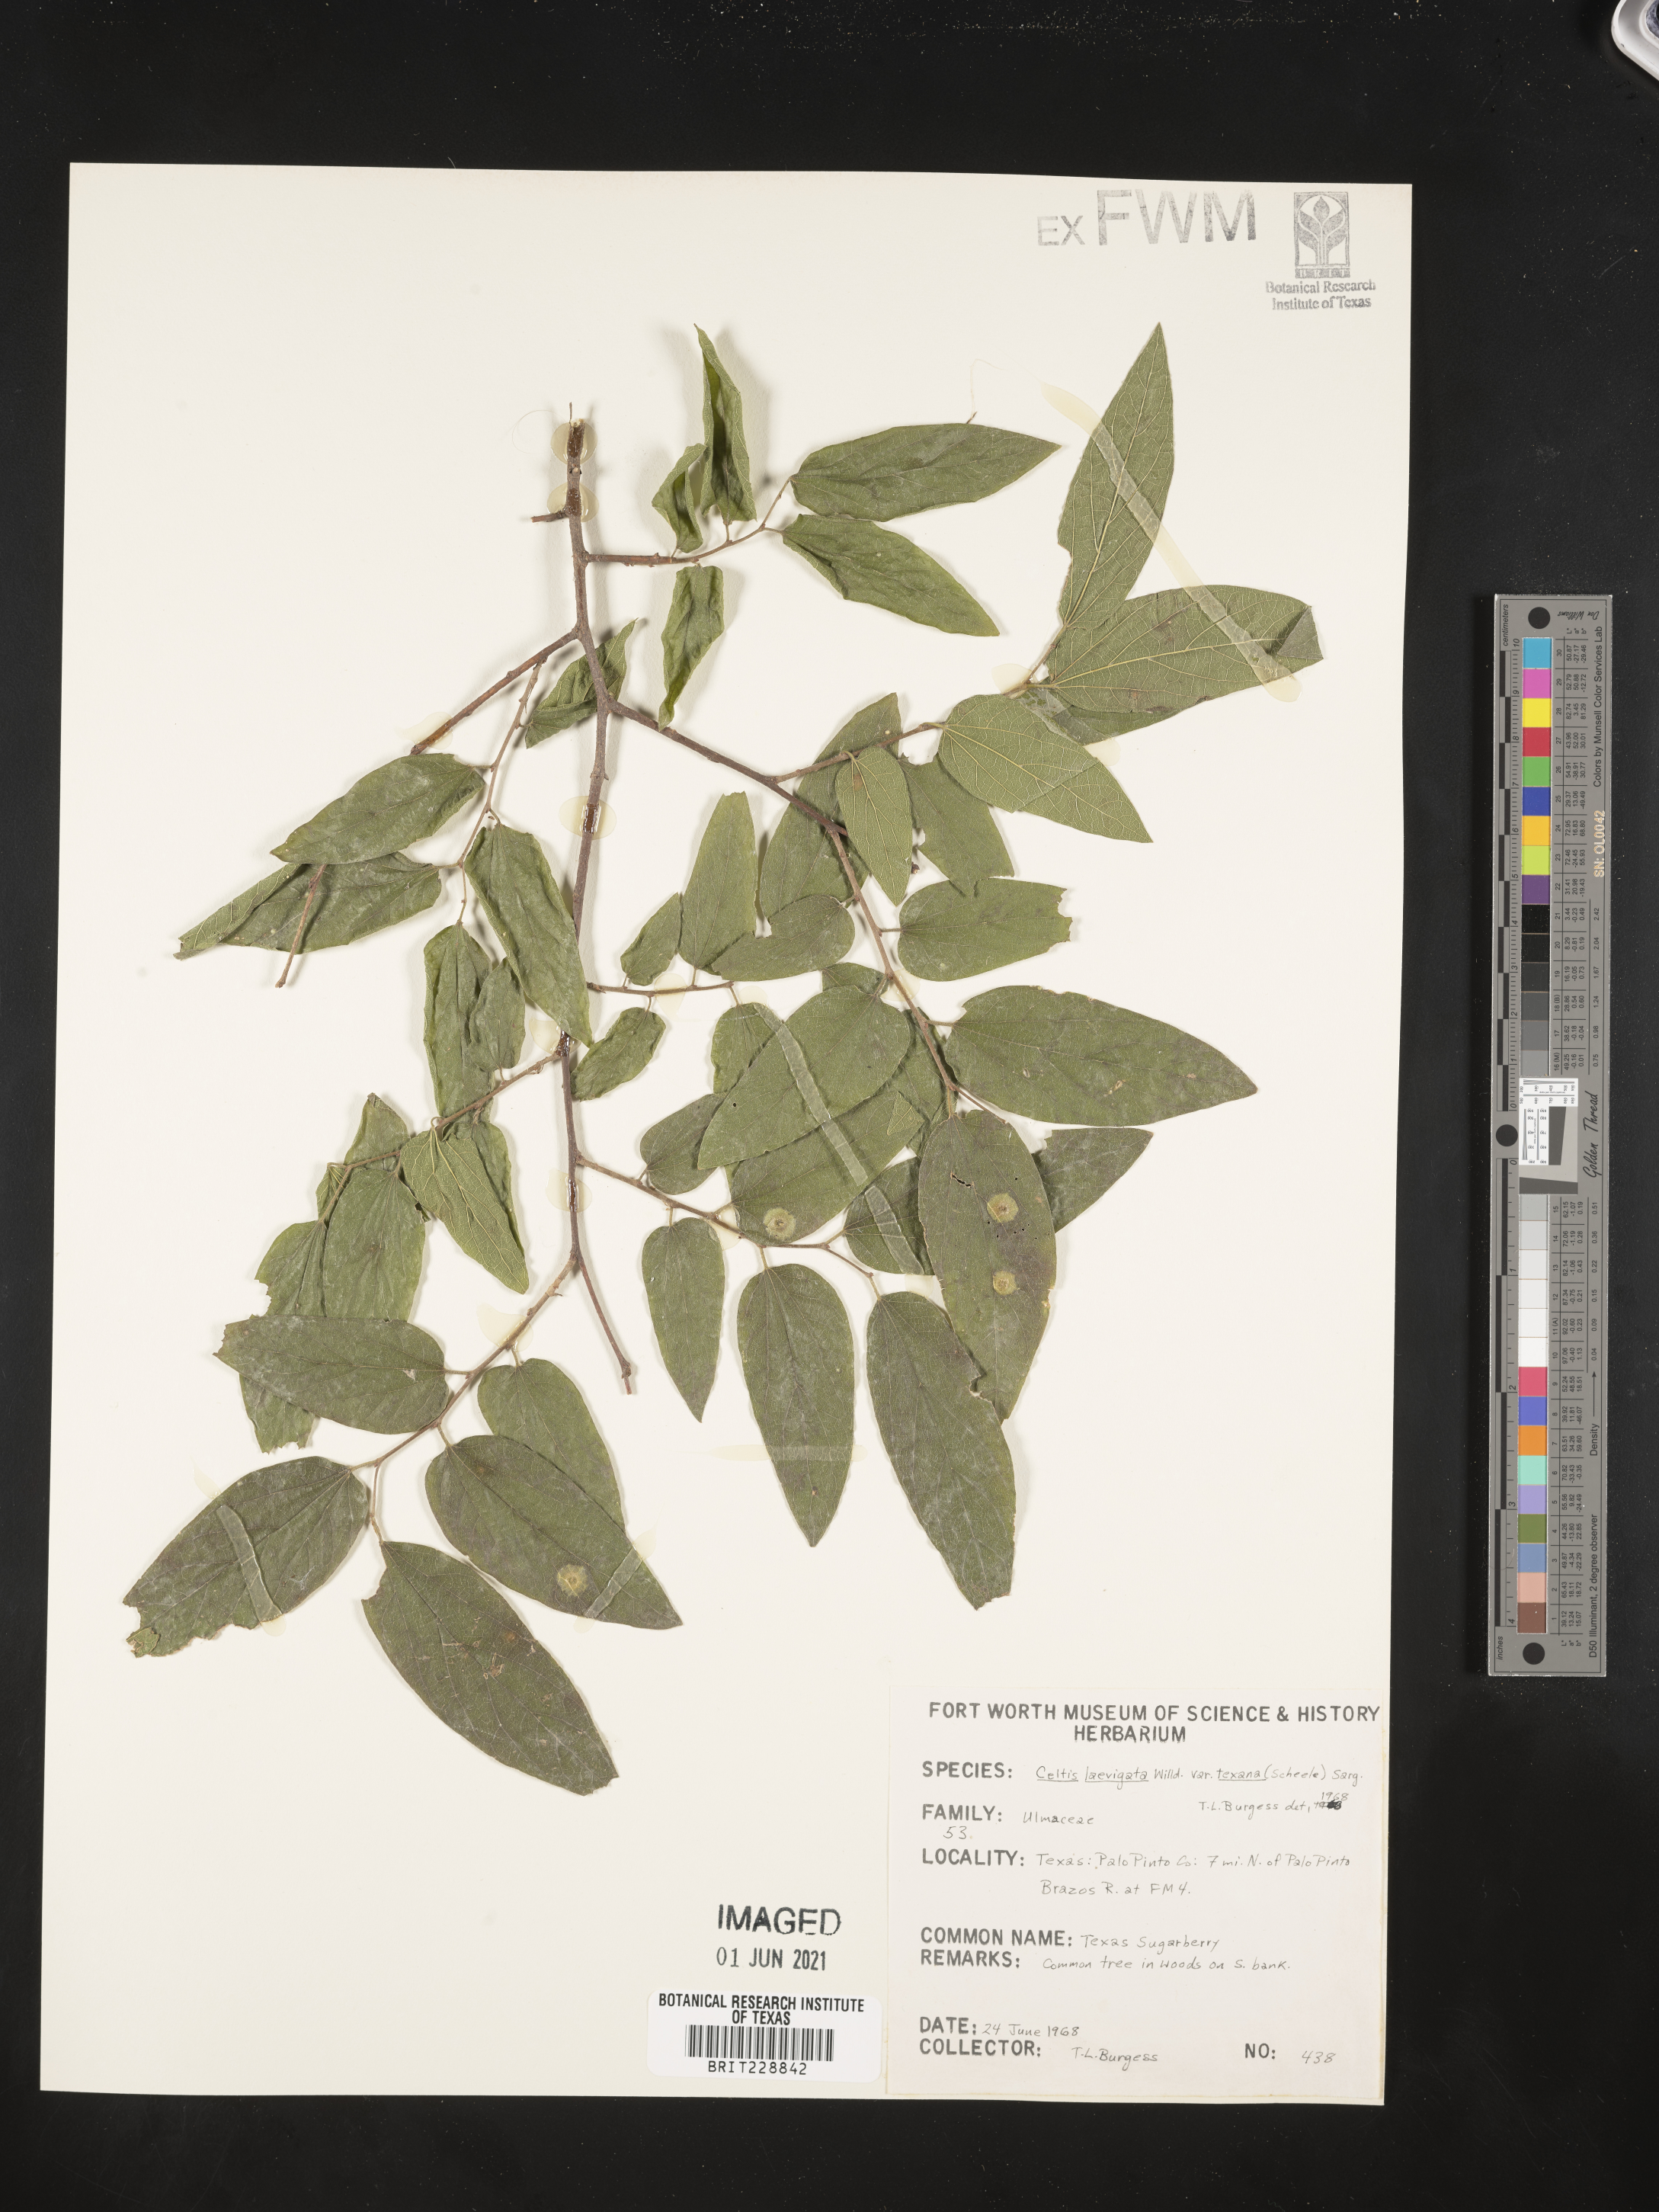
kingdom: Plantae
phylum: Tracheophyta
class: Magnoliopsida
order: Rosales
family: Cannabaceae
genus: Celtis
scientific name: Celtis laevigata
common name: Sugarberry
